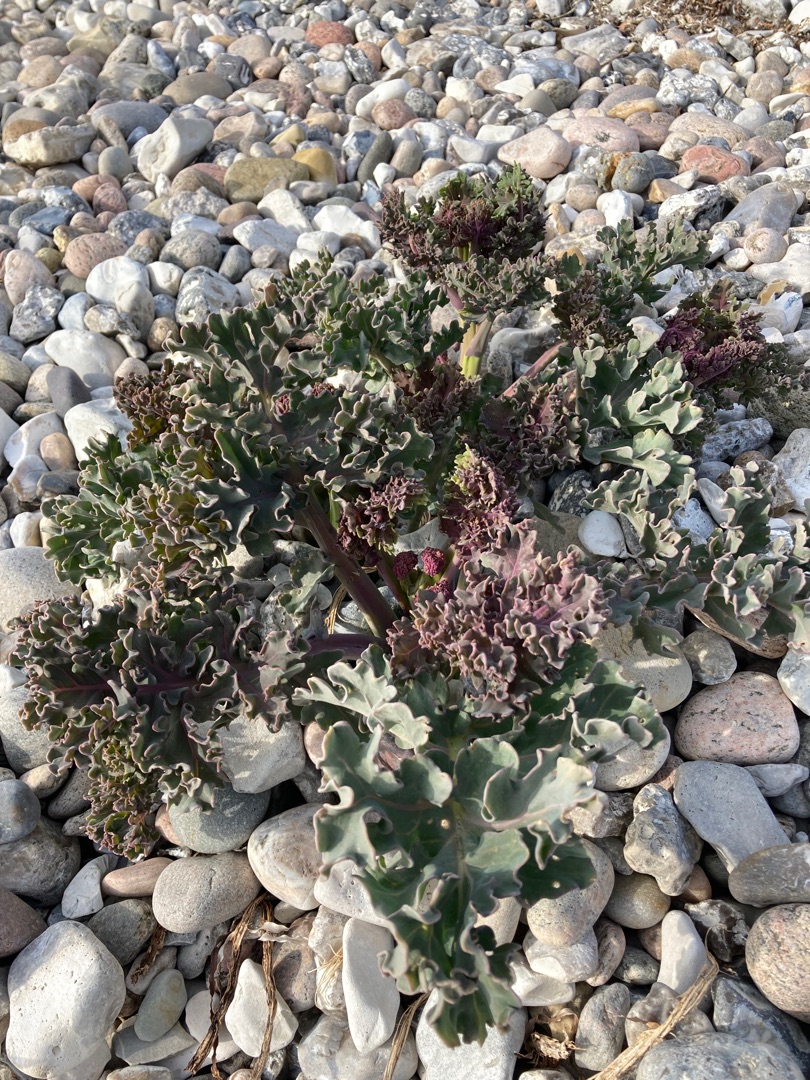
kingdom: Plantae
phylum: Tracheophyta
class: Magnoliopsida
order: Brassicales
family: Brassicaceae
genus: Crambe
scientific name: Crambe maritima
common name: Strandkål
